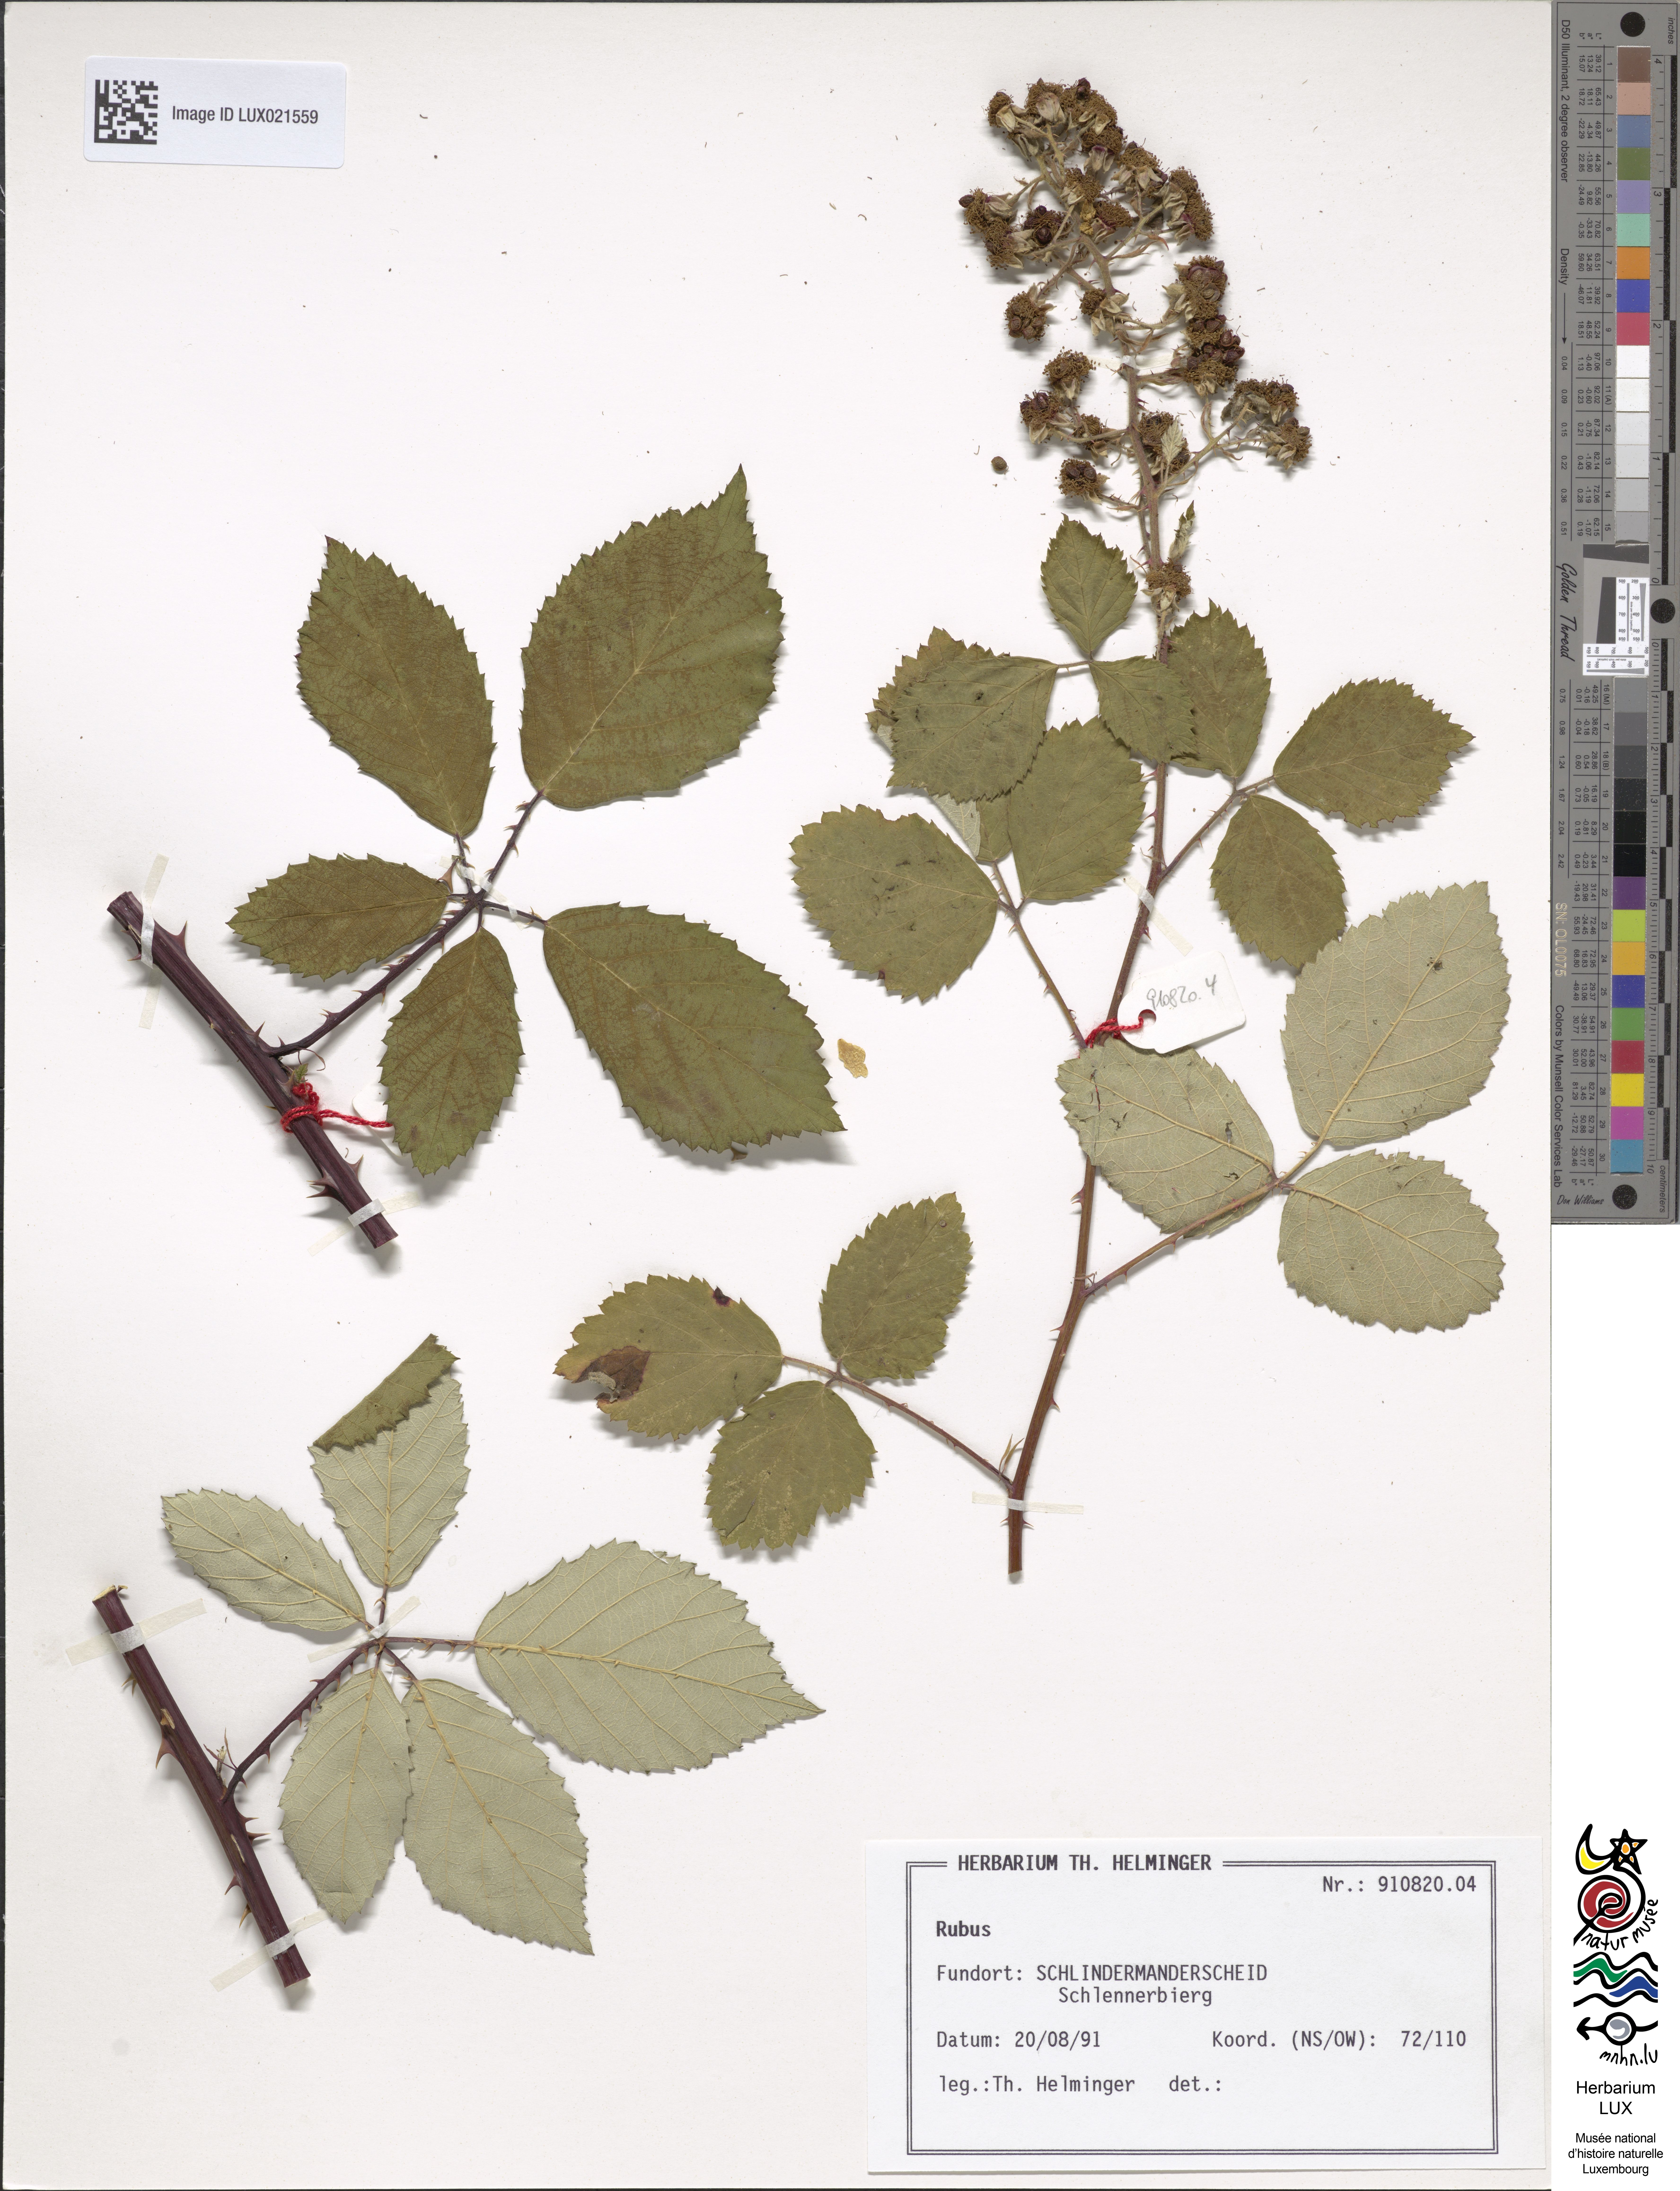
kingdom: Plantae
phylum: Tracheophyta
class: Magnoliopsida
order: Rosales
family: Rosaceae
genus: Rubus
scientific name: Rubus
